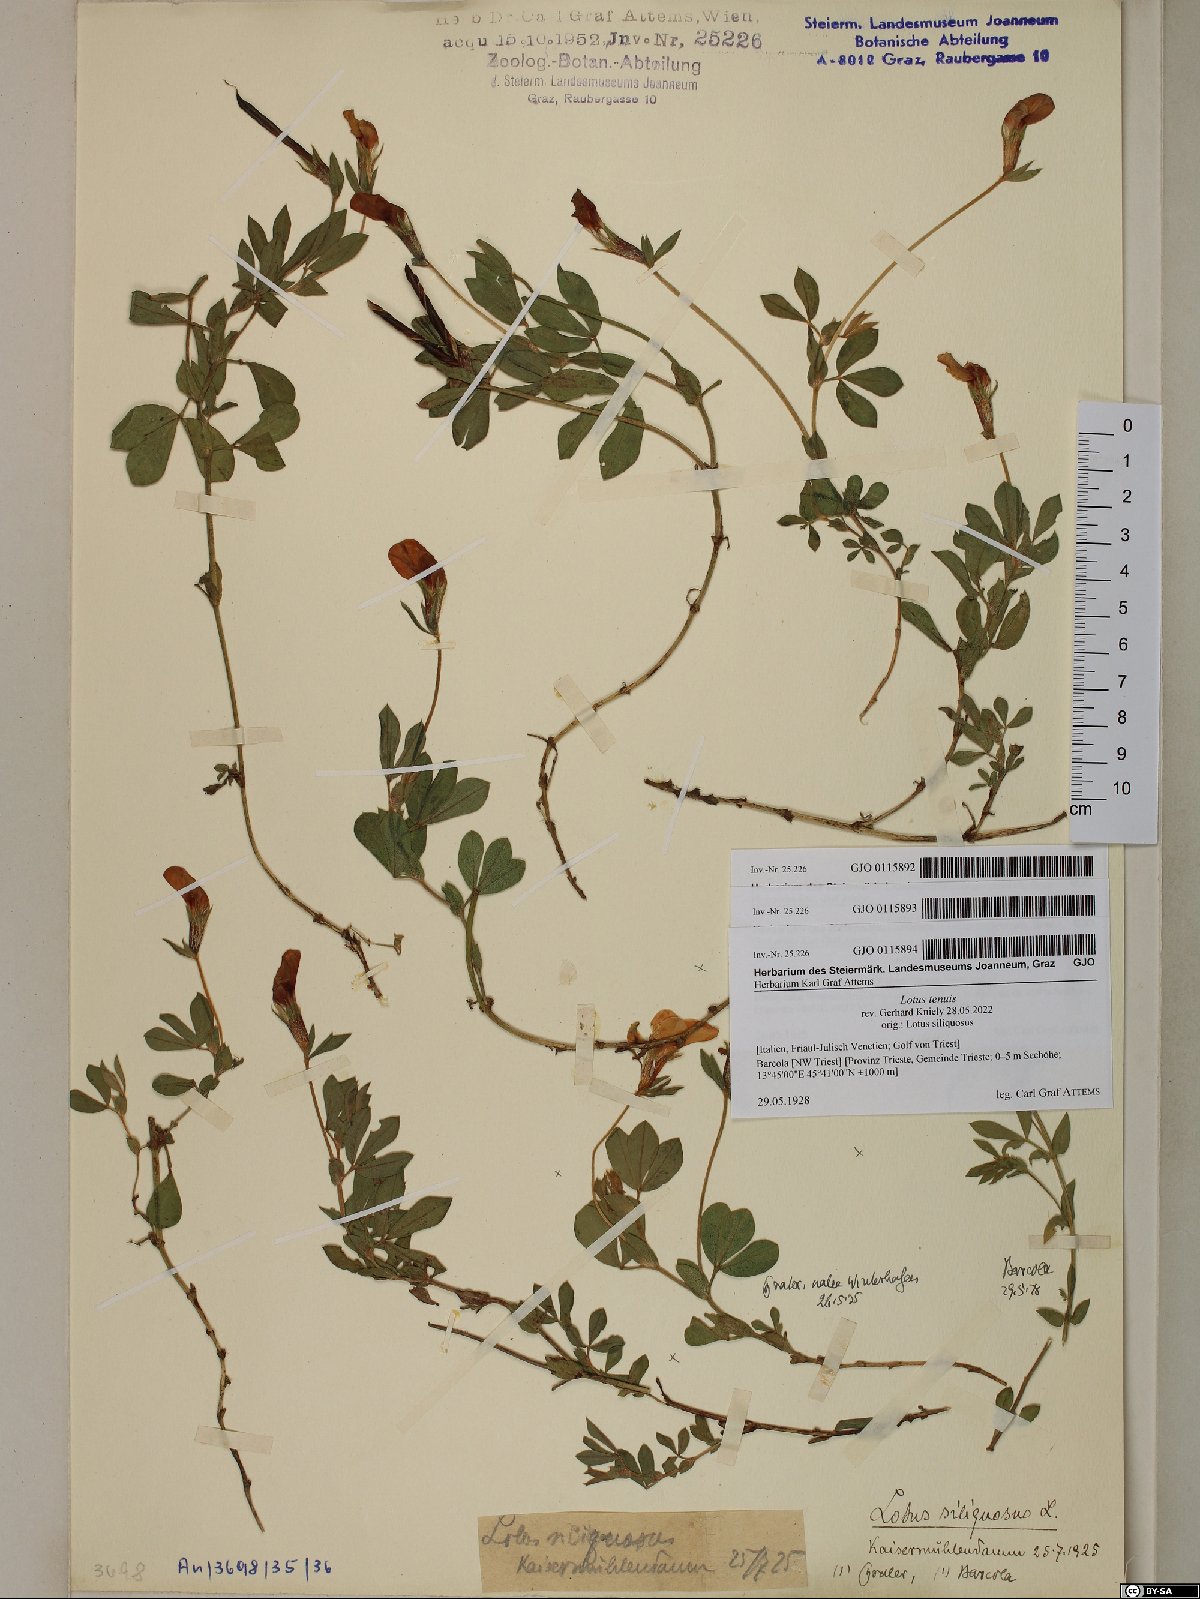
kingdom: Plantae
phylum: Tracheophyta
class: Magnoliopsida
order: Fabales
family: Fabaceae
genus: Lathyrus
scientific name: Lathyrus inconspicuus
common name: Inconspicuous pea
